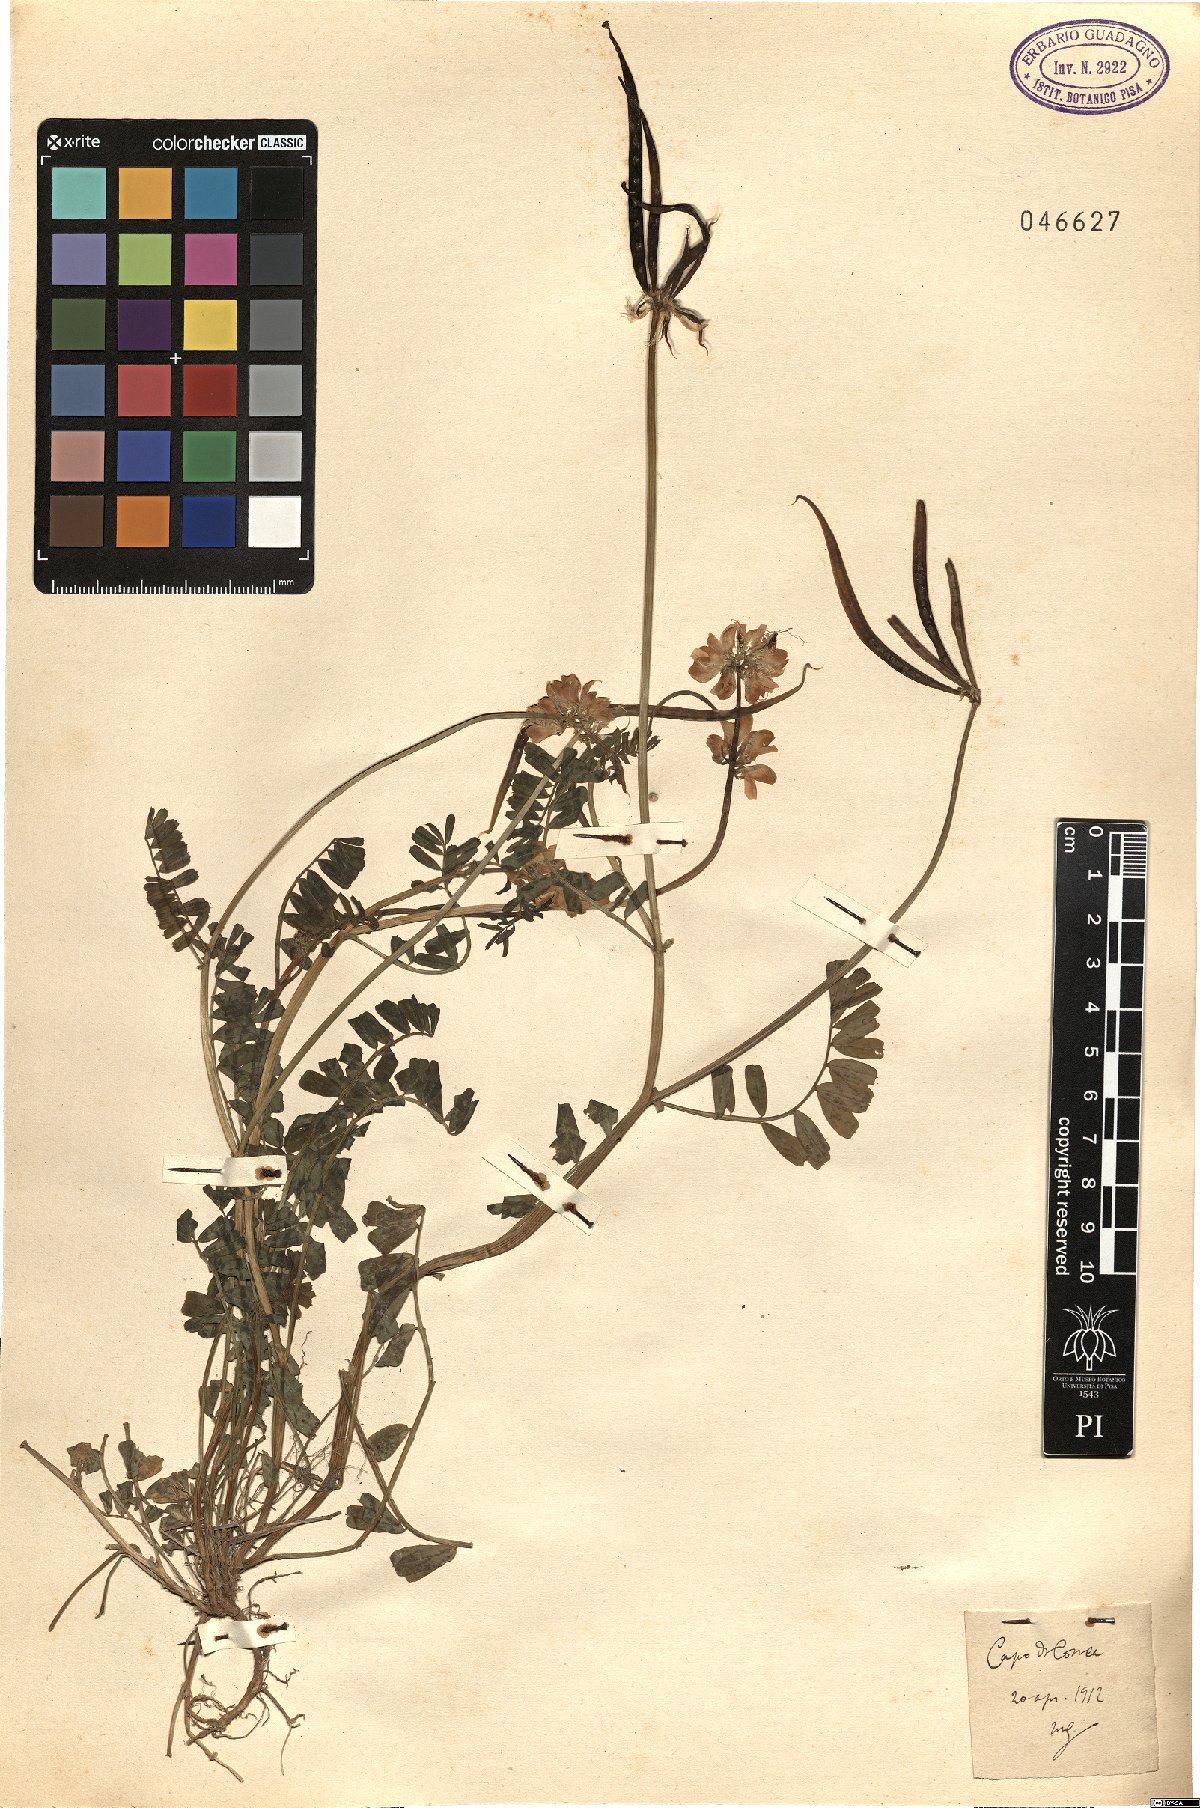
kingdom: Animalia
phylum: Arthropoda
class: Insecta
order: Orthoptera
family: Romaleidae
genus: Securigera
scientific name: Securigera
